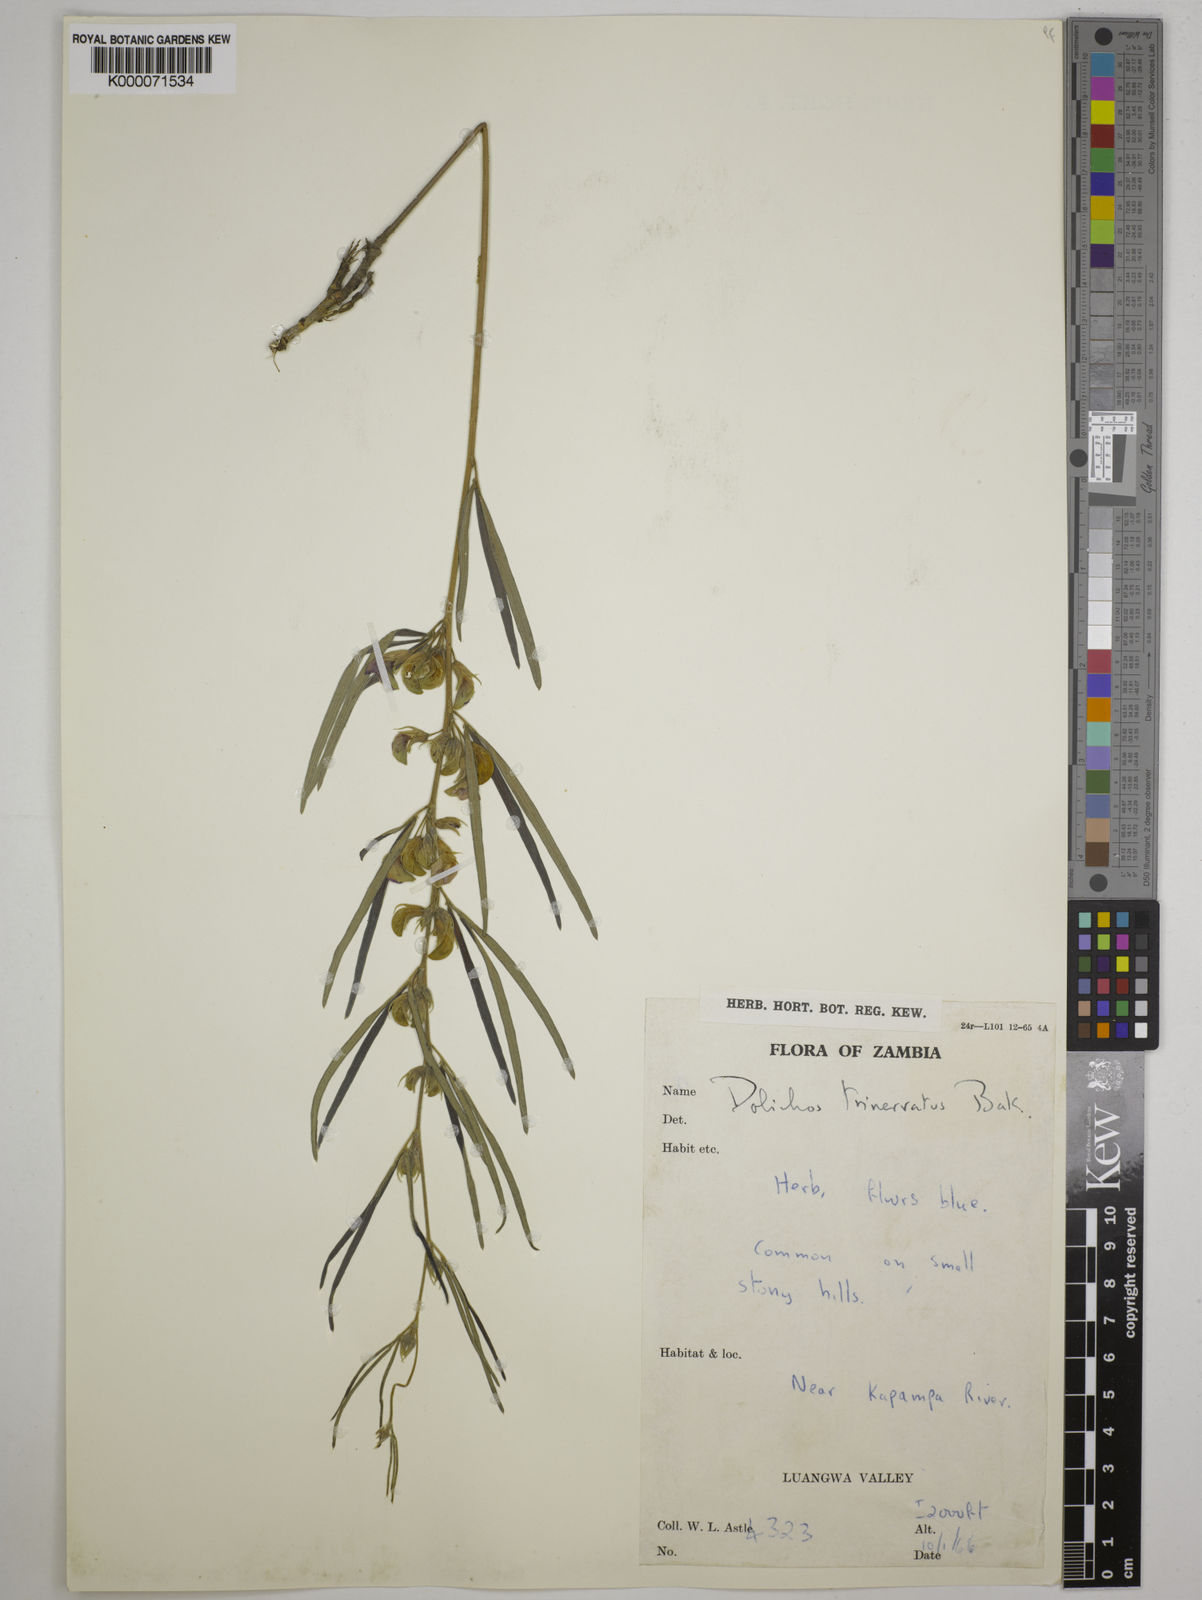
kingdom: Plantae
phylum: Tracheophyta
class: Magnoliopsida
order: Fabales
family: Fabaceae
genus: Dolichos
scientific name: Dolichos trinervatus
